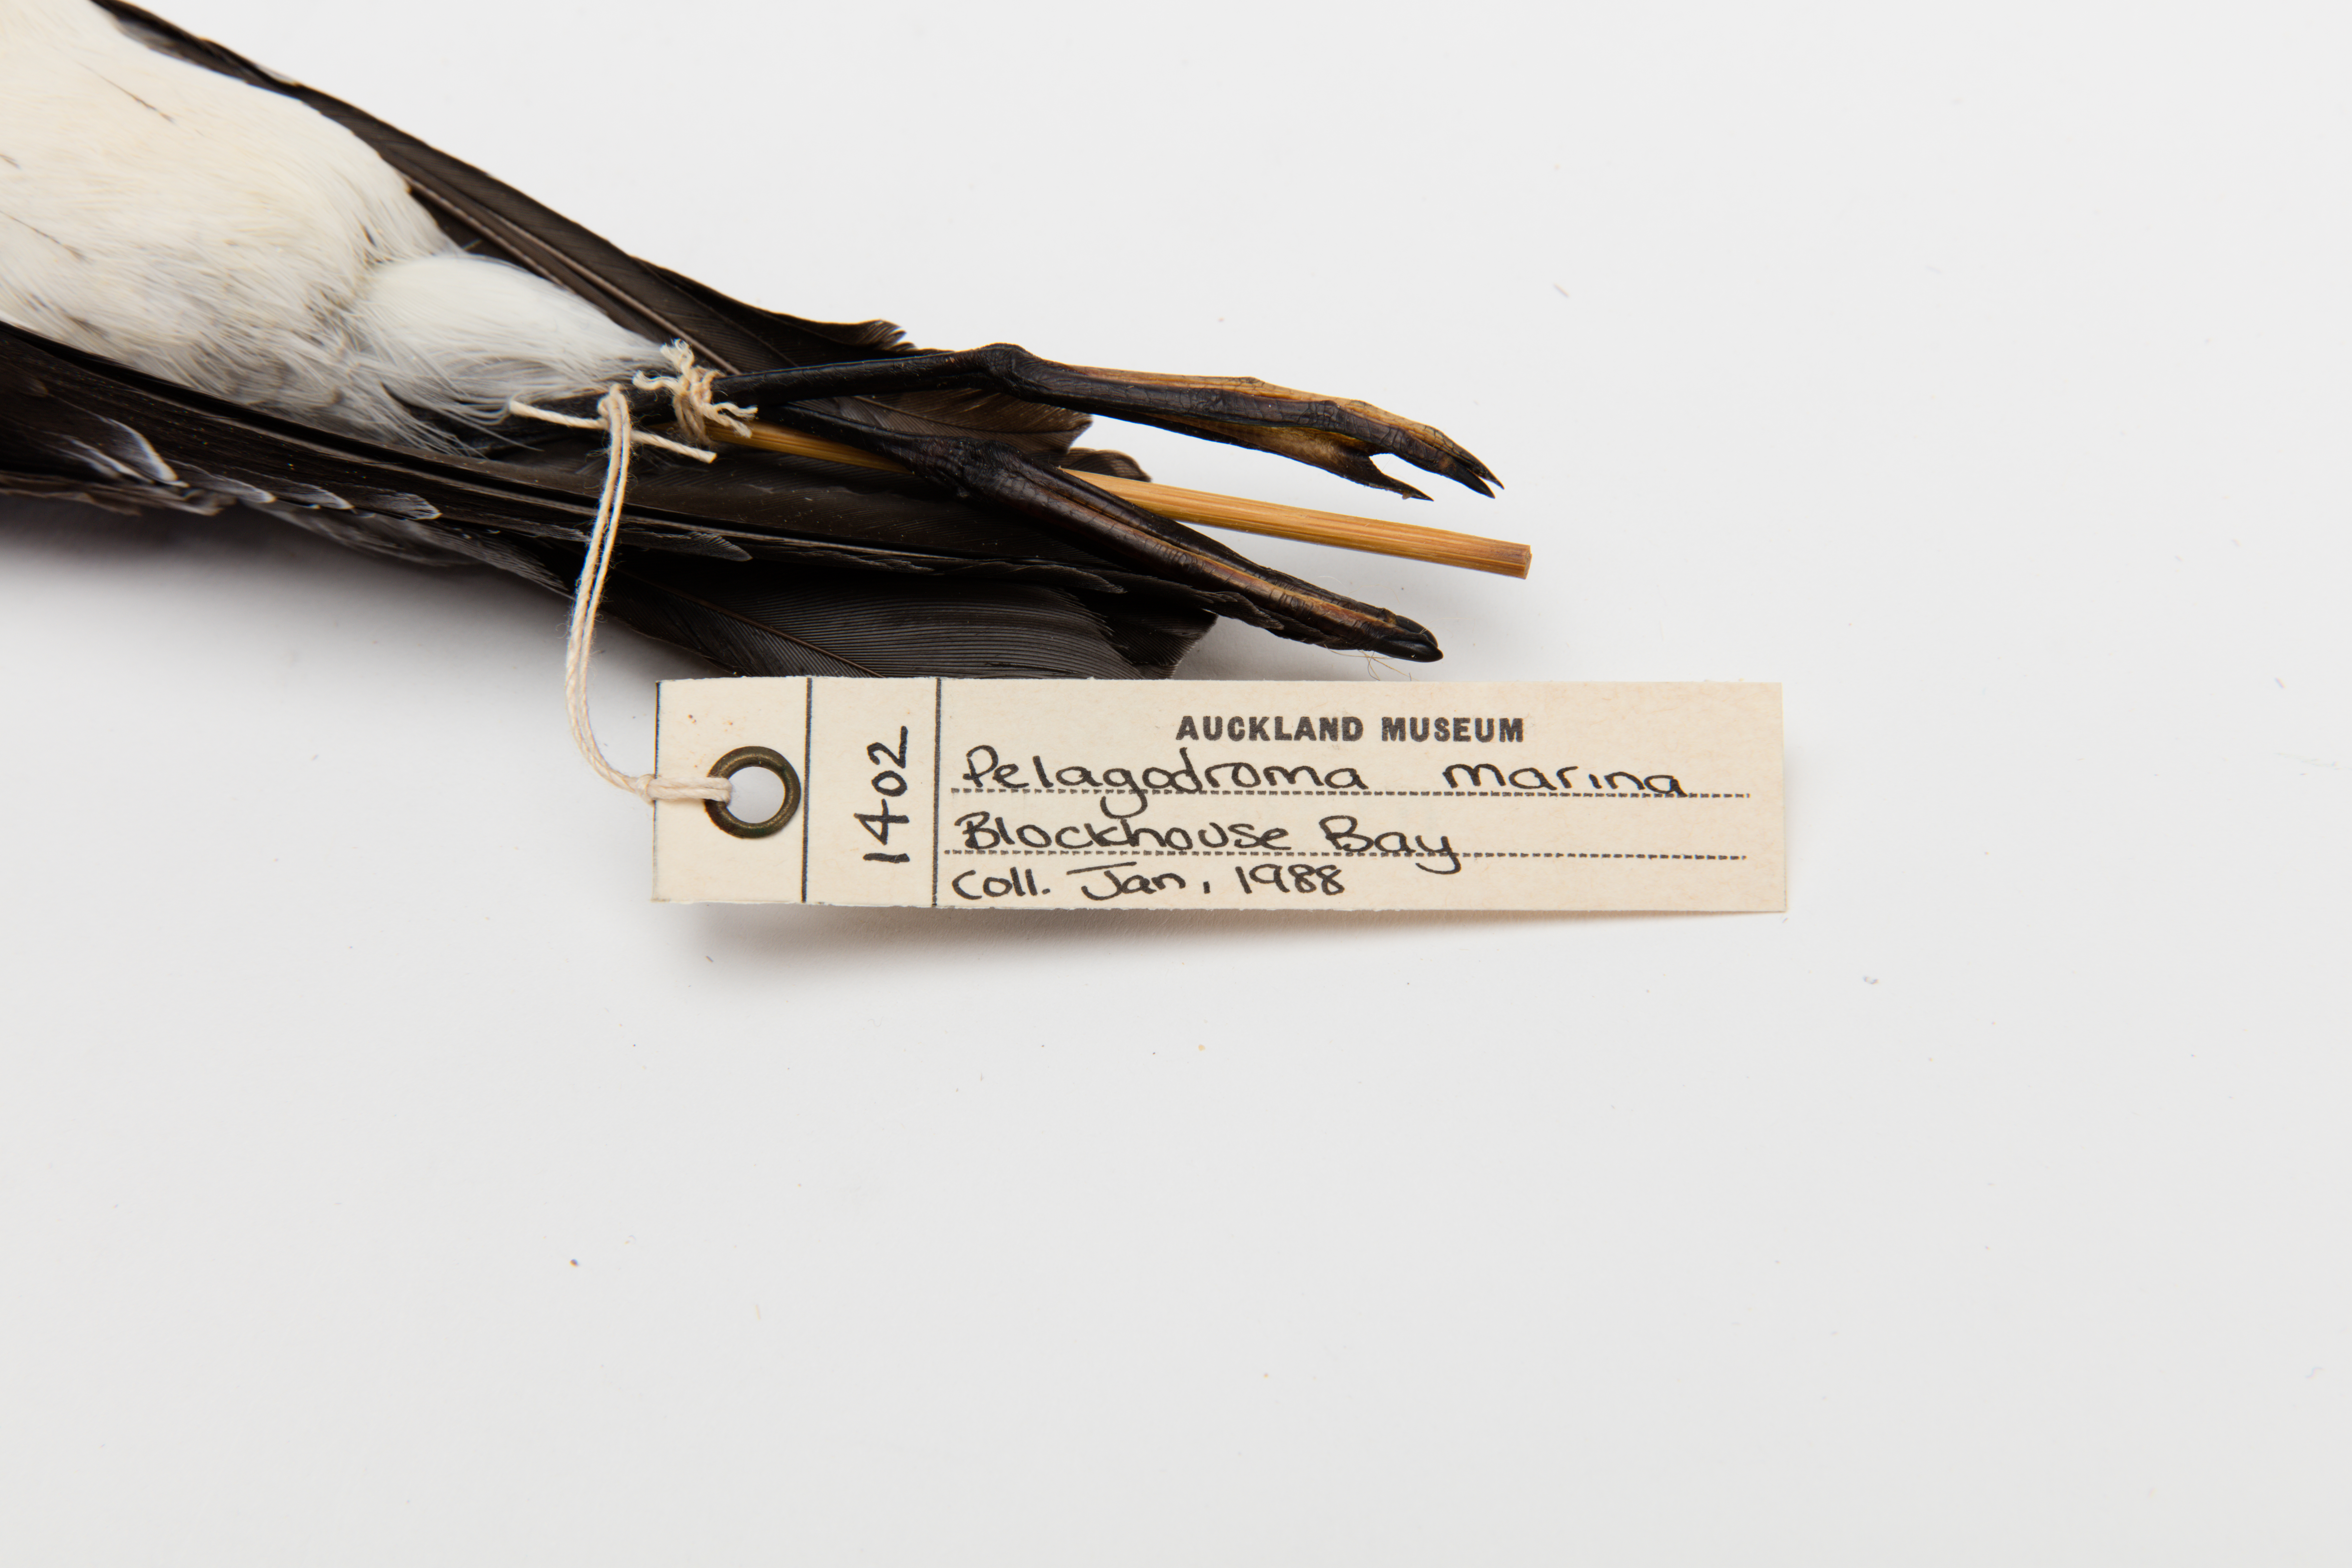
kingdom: Animalia
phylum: Chordata
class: Aves
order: Procellariiformes
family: Hydrobatidae
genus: Pelagodroma
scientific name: Pelagodroma marina
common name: White-faced storm-petrel
